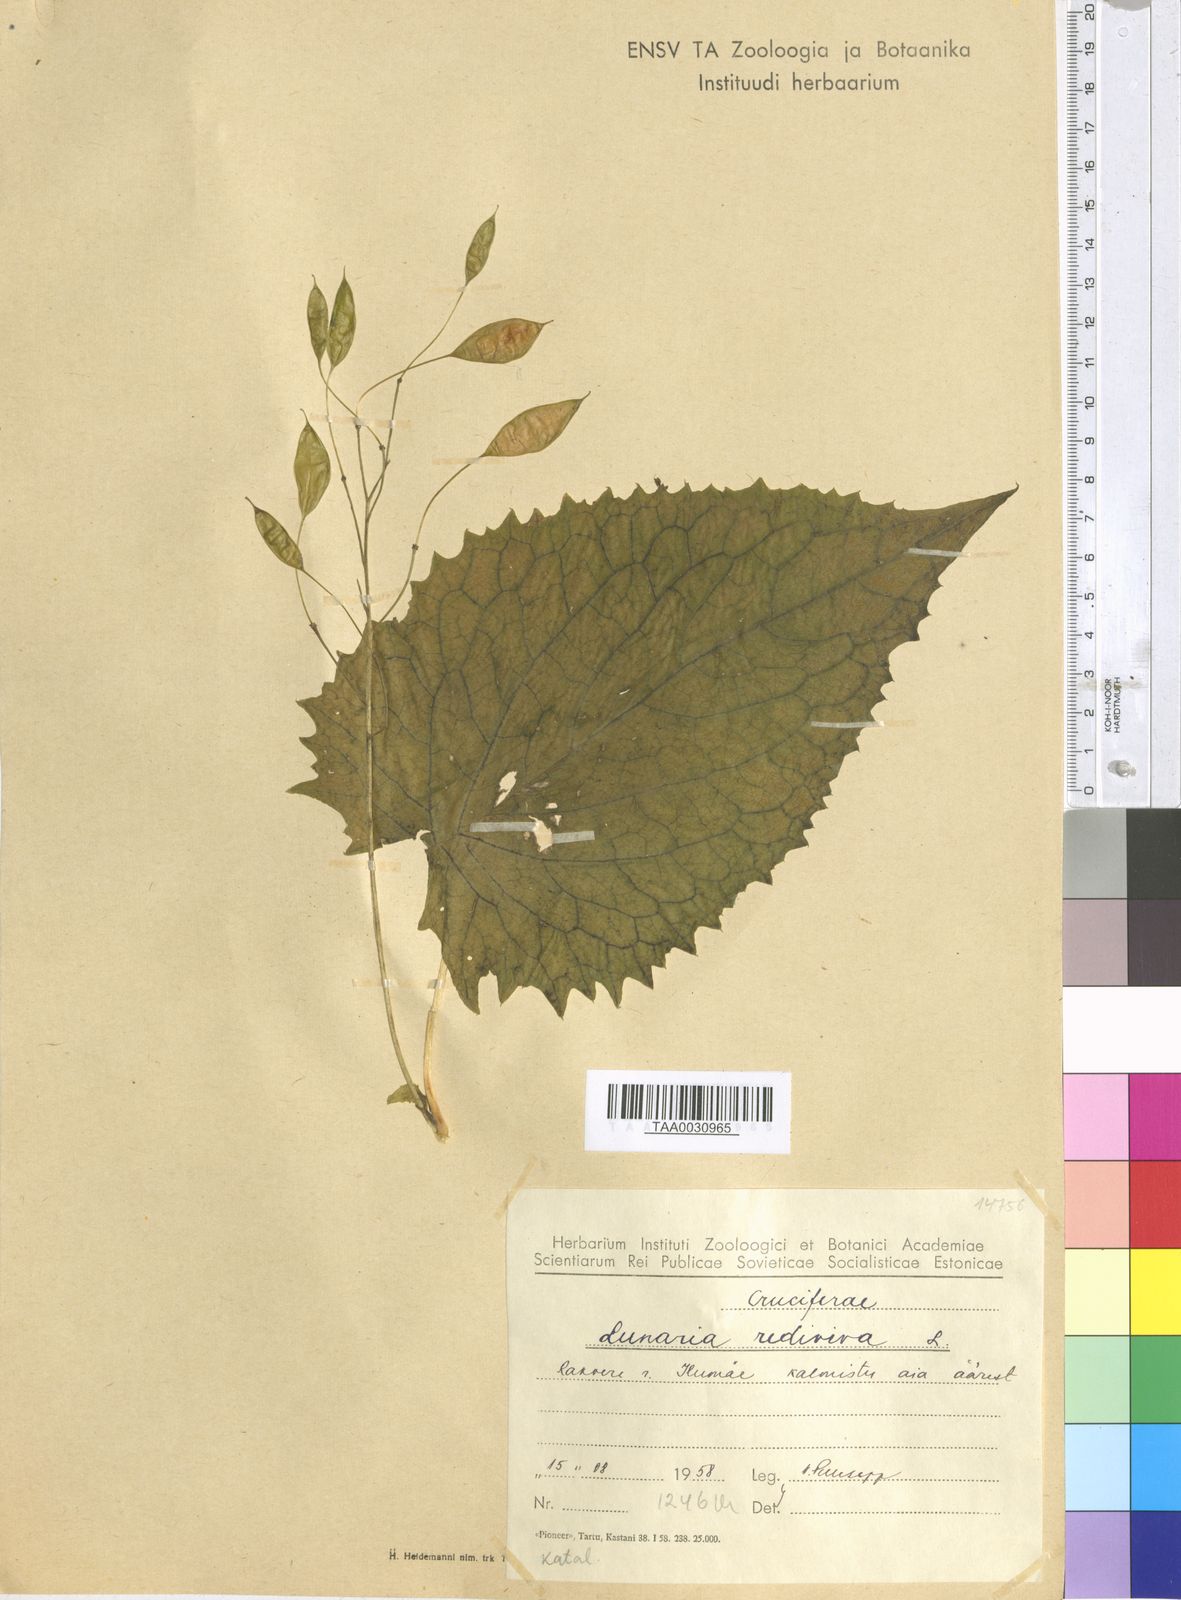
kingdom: Plantae
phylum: Tracheophyta
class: Magnoliopsida
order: Brassicales
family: Brassicaceae
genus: Lunaria
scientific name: Lunaria rediviva
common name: Perennial honesty
